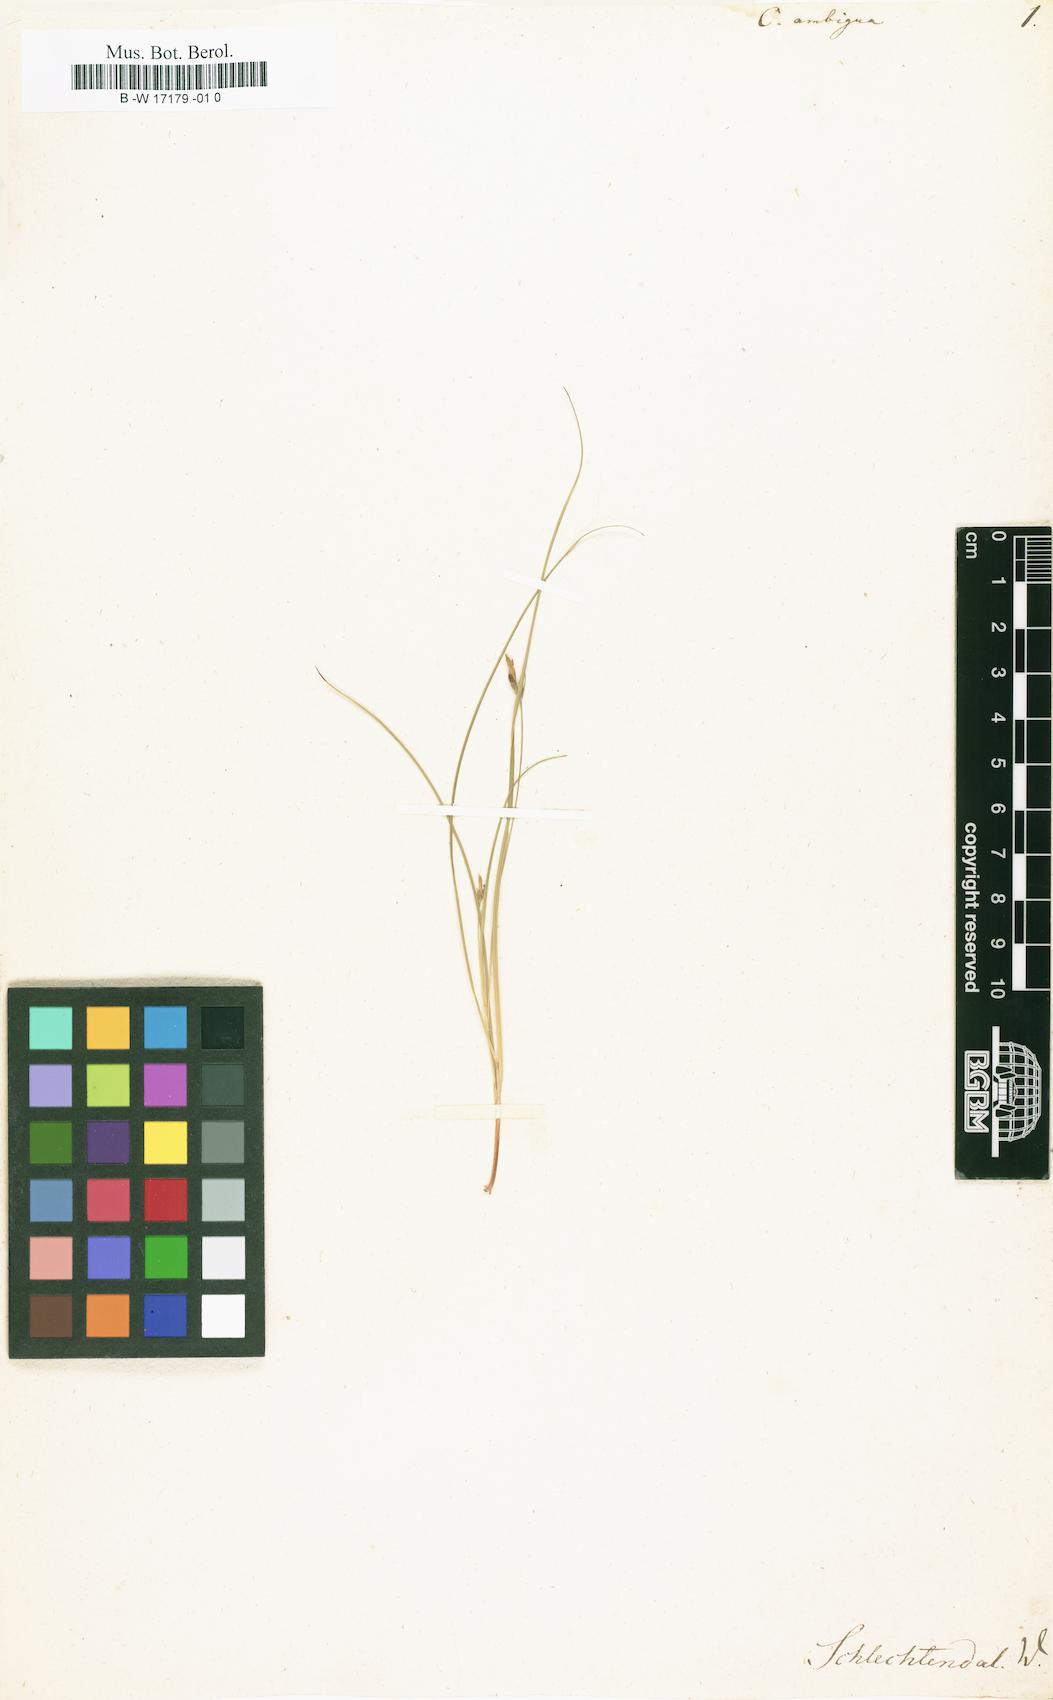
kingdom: Plantae
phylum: Tracheophyta
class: Liliopsida
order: Poales
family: Cyperaceae
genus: Carex
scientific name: Carex
